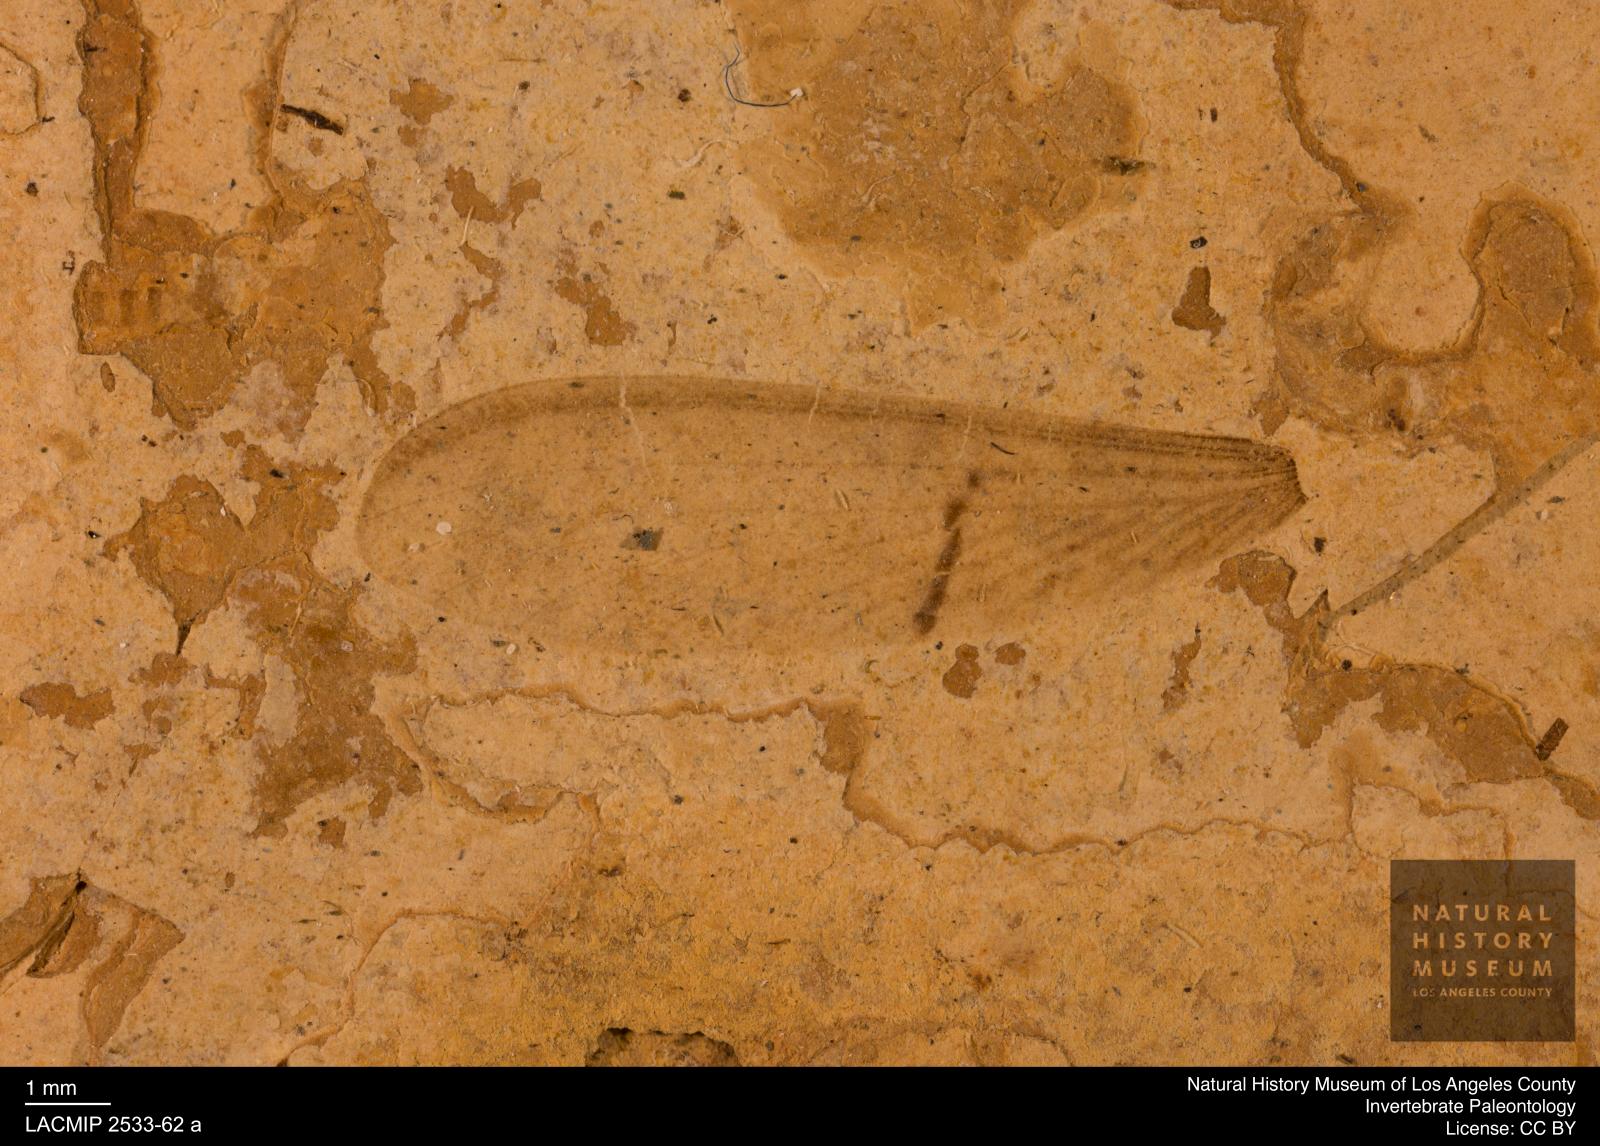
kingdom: Animalia
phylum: Arthropoda
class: Insecta
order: Blattodea
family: Rhinotermitidae
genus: Reticulitermes
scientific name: Reticulitermes holmgreni
